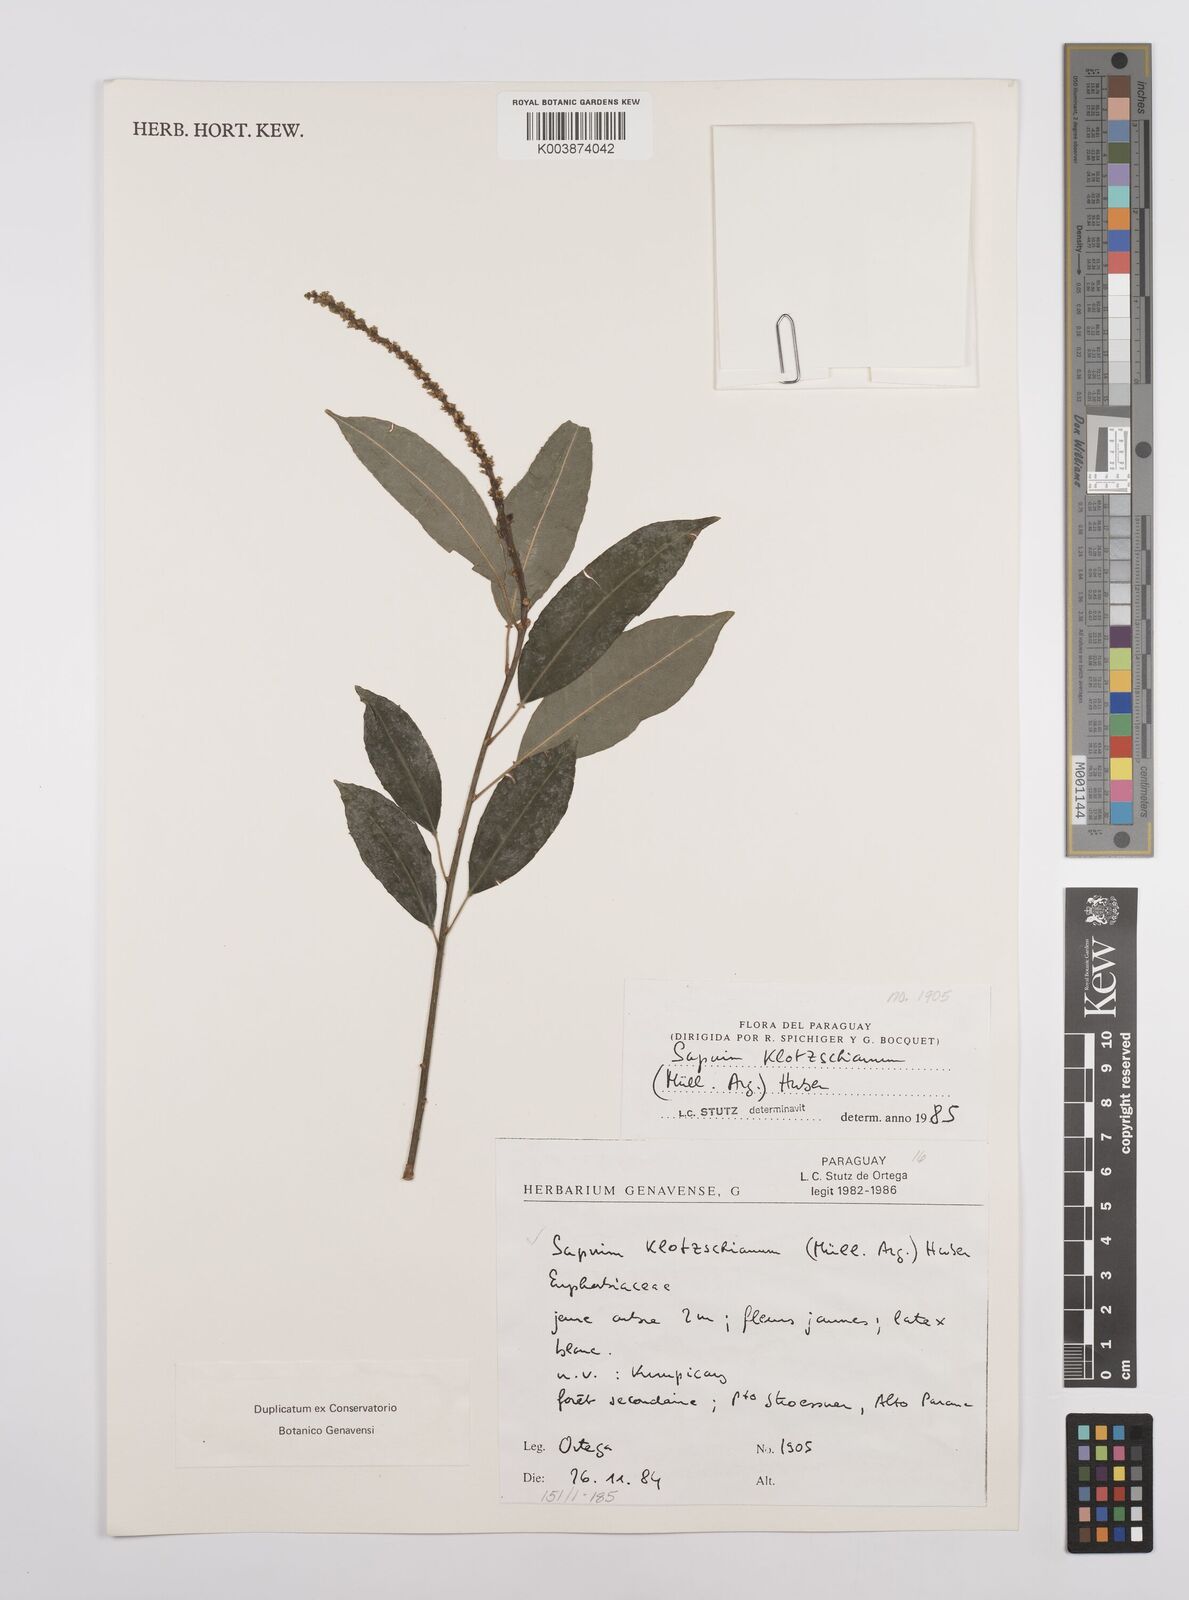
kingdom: Plantae
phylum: Tracheophyta
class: Magnoliopsida
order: Malpighiales
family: Euphorbiaceae
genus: Sapium
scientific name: Sapium glandulosum
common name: Milktree
